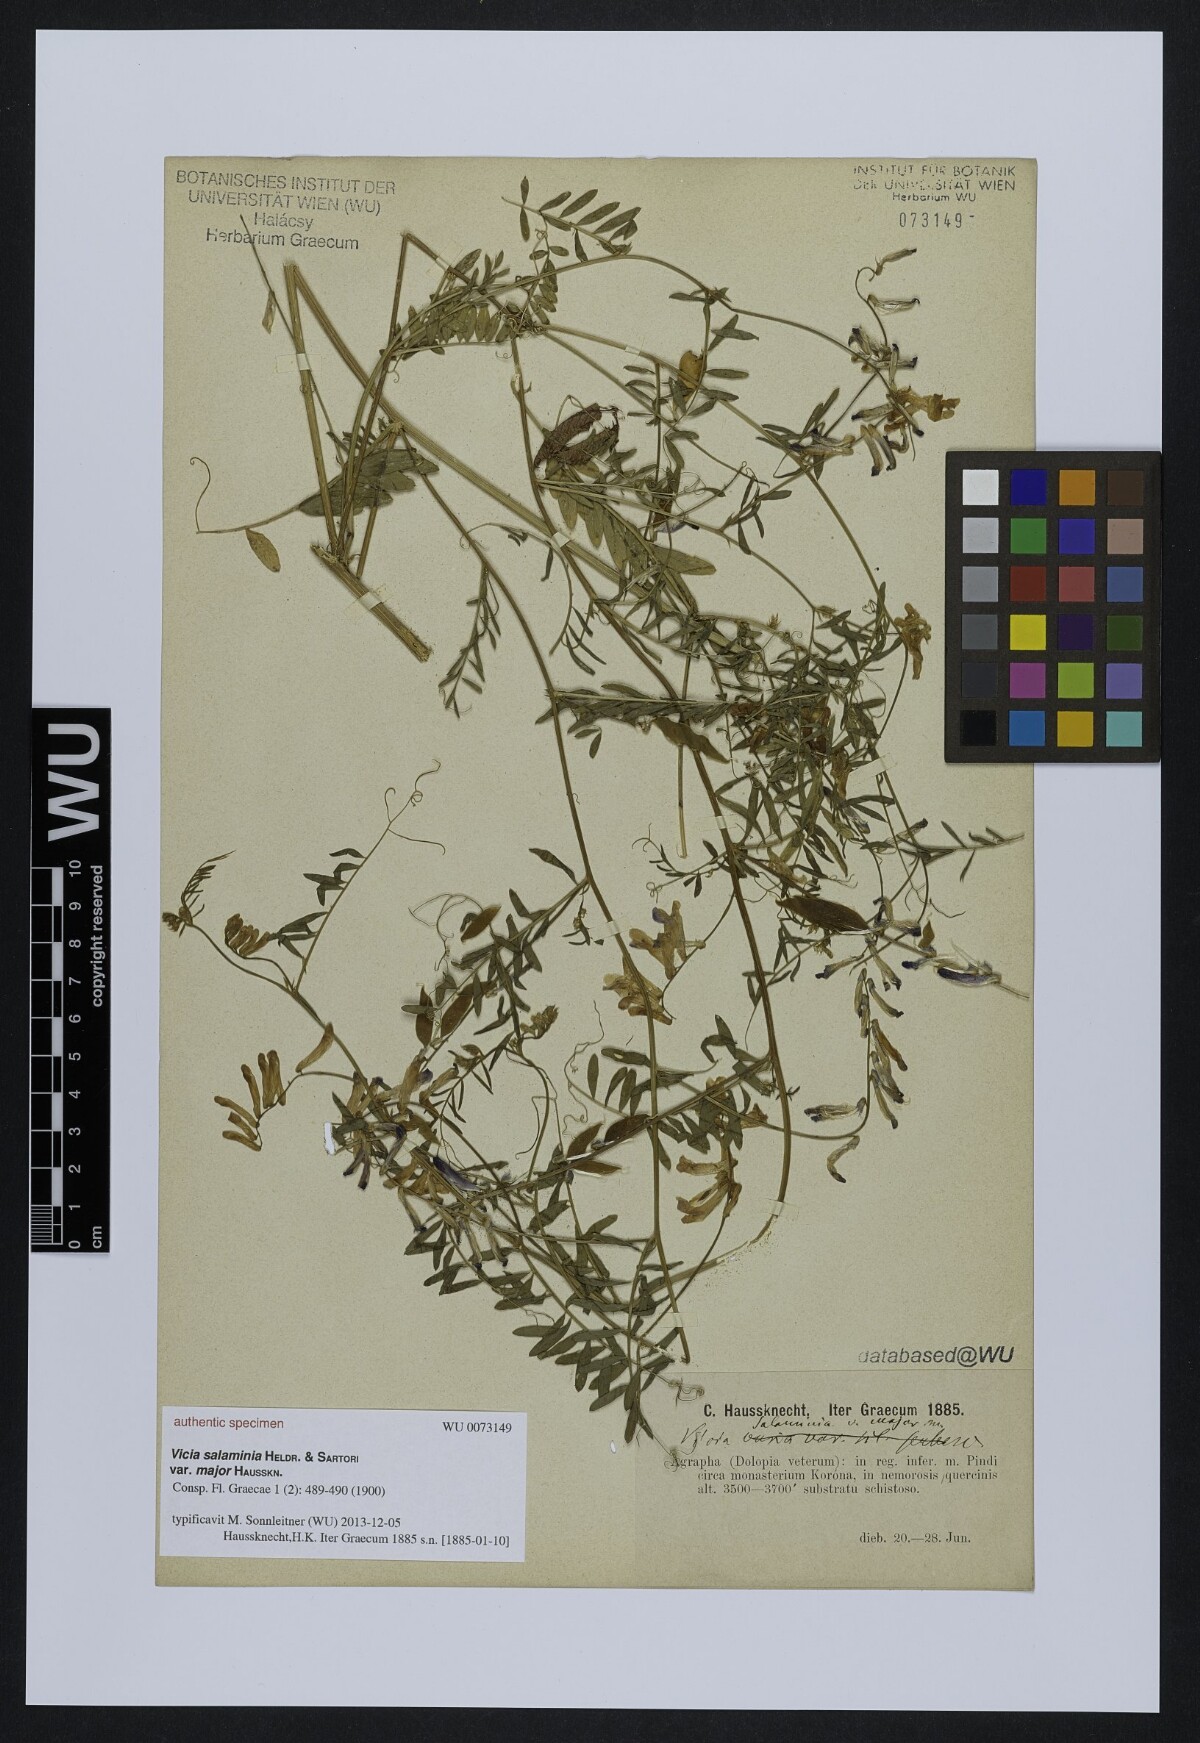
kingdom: Plantae
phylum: Tracheophyta
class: Magnoliopsida
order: Fabales
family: Fabaceae
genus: Vicia
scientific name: Vicia villosa
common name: Fodder vetch
